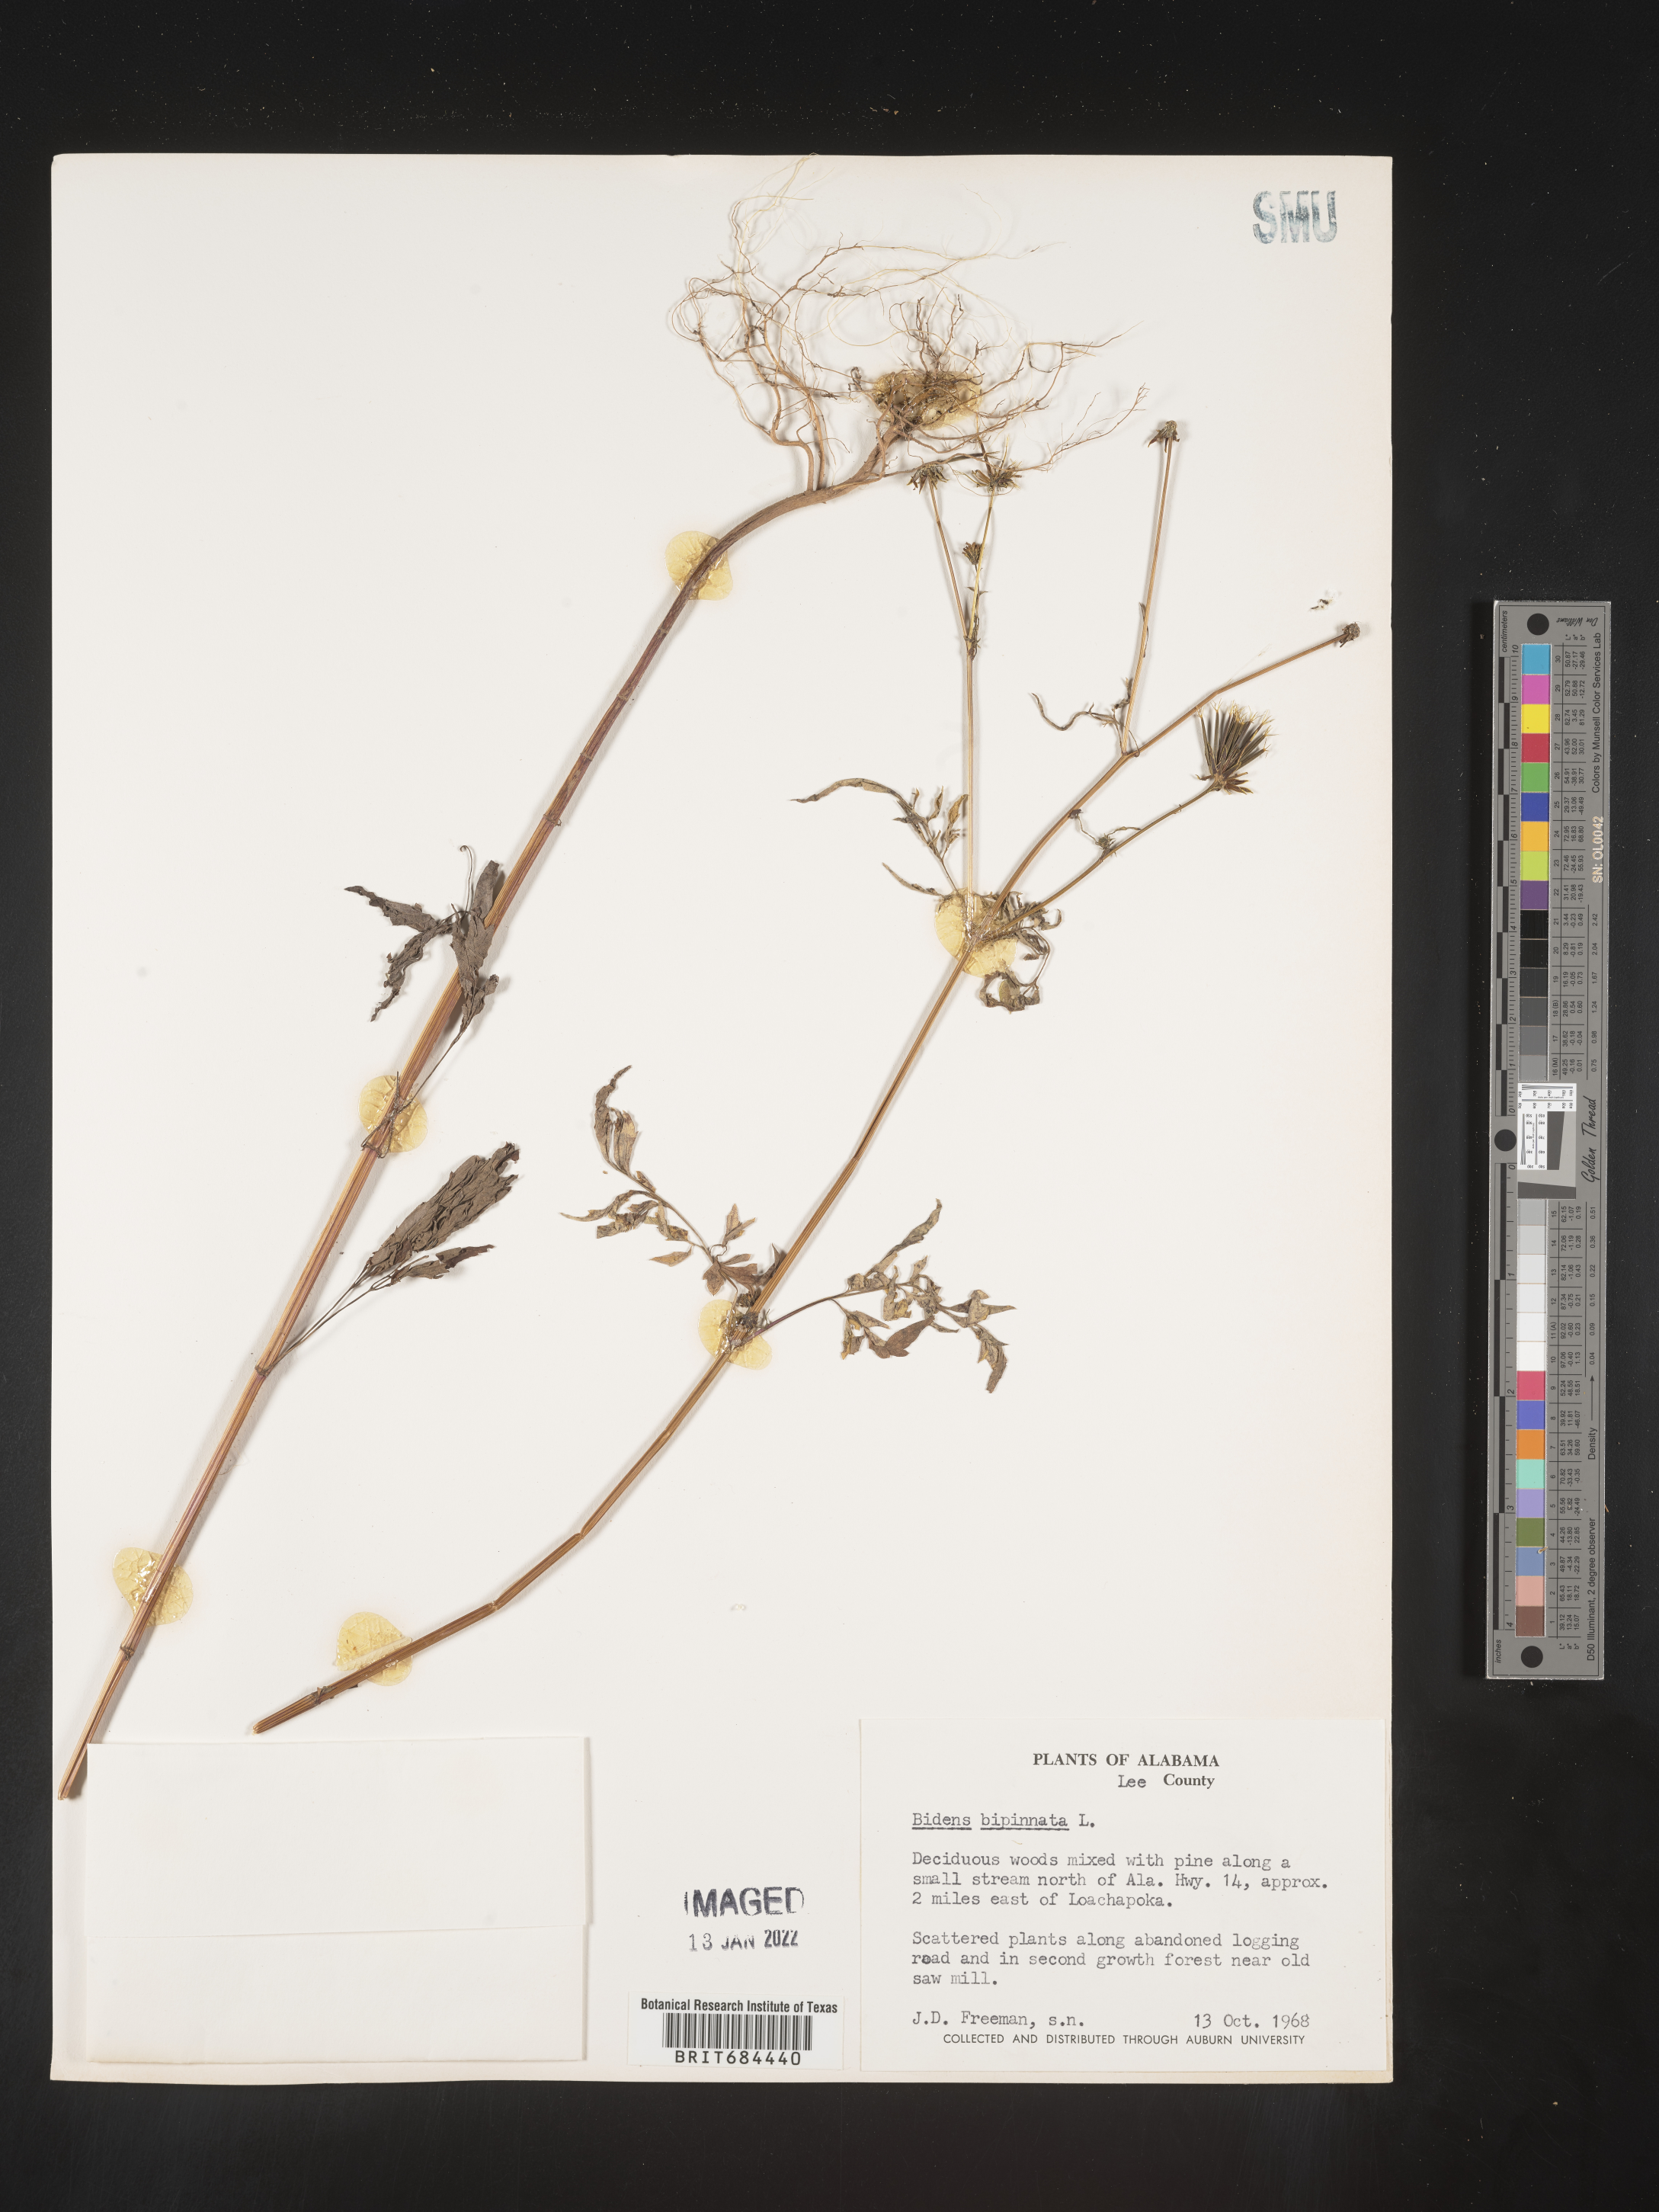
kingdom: Plantae
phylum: Tracheophyta
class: Magnoliopsida
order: Asterales
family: Asteraceae
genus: Bidens
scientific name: Bidens bipinnata
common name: Spanish-needles
